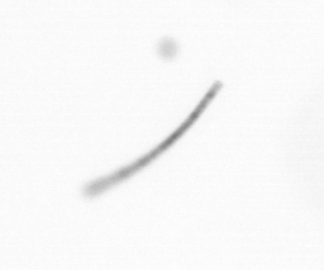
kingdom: Chromista
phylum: Ochrophyta
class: Bacillariophyceae
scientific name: Bacillariophyceae
